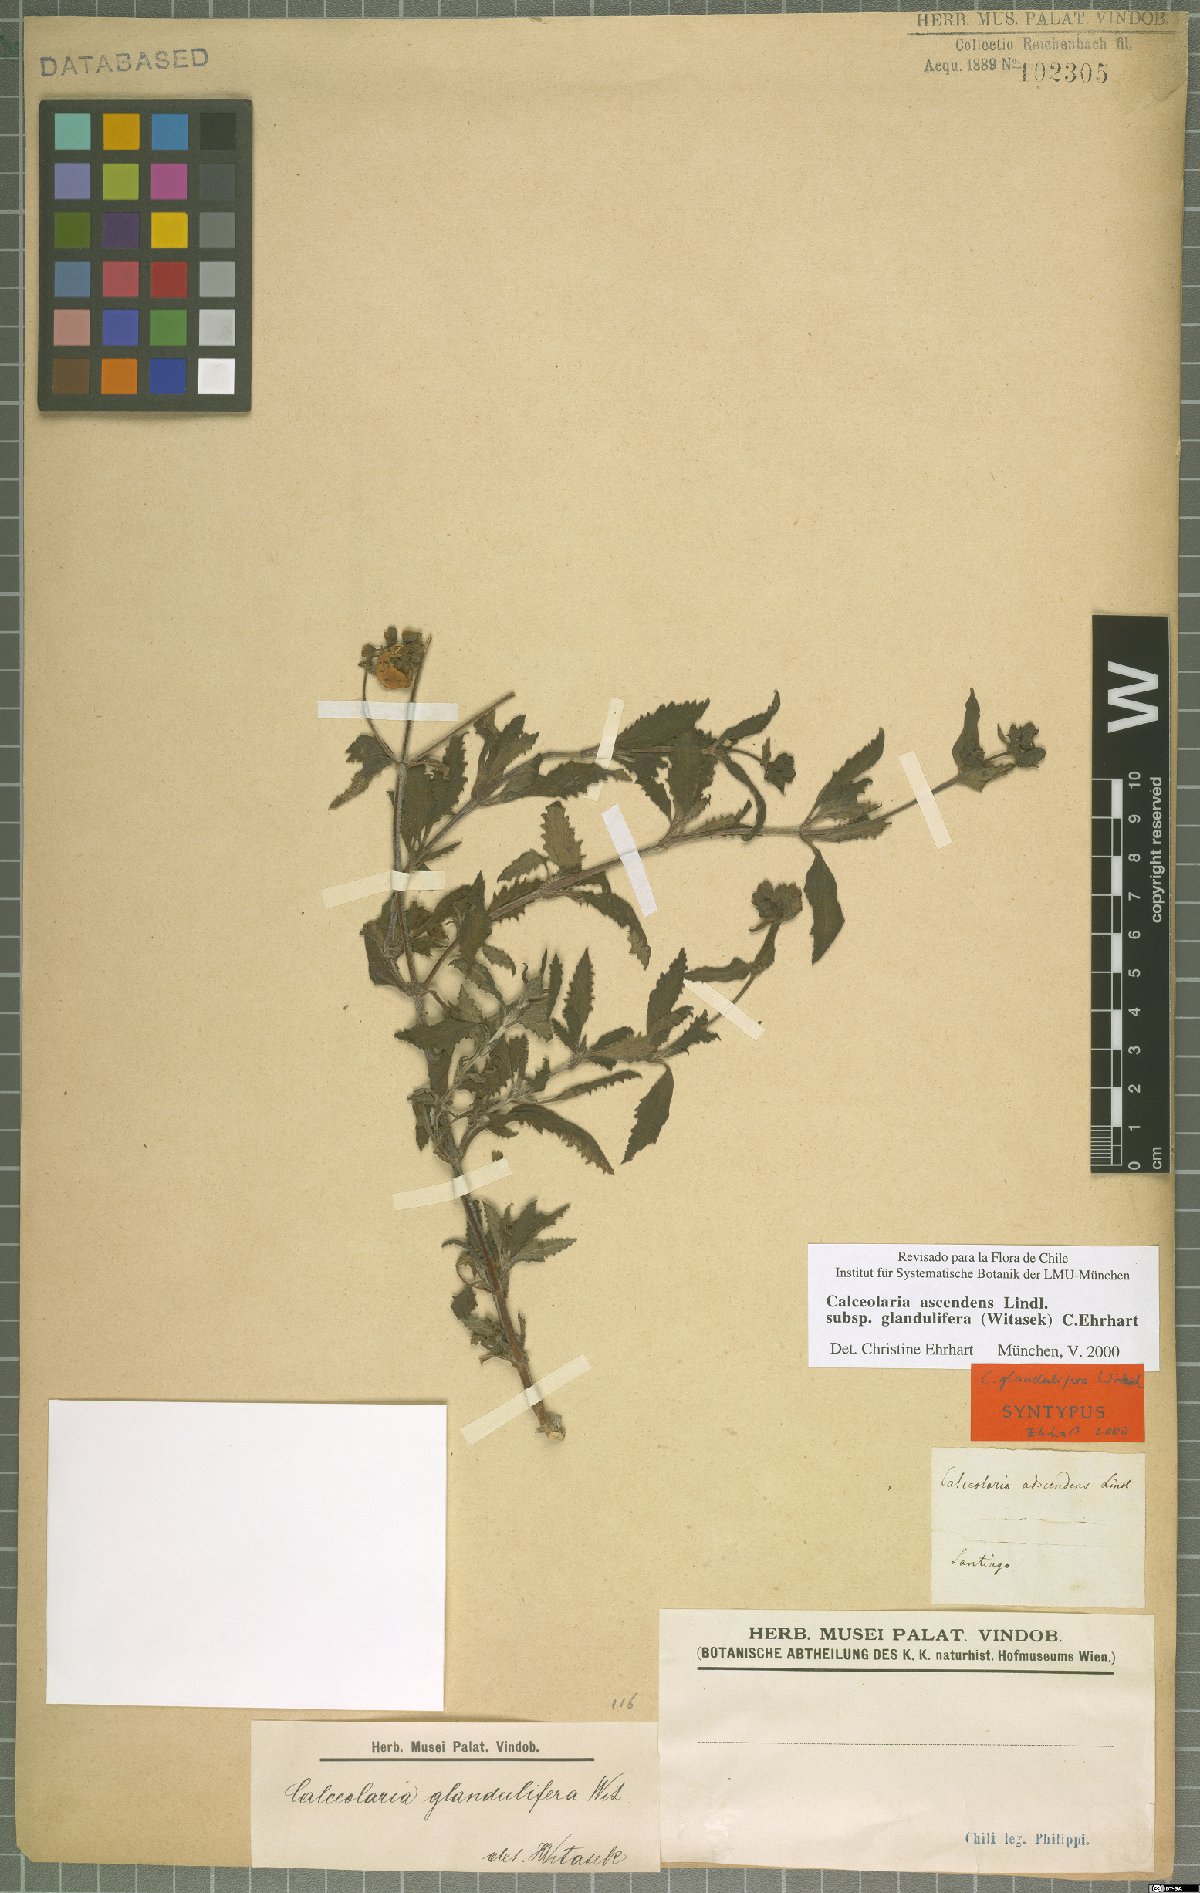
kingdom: Plantae
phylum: Tracheophyta
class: Magnoliopsida
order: Lamiales
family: Calceolariaceae
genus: Calceolaria
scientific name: Calceolaria ascendens
